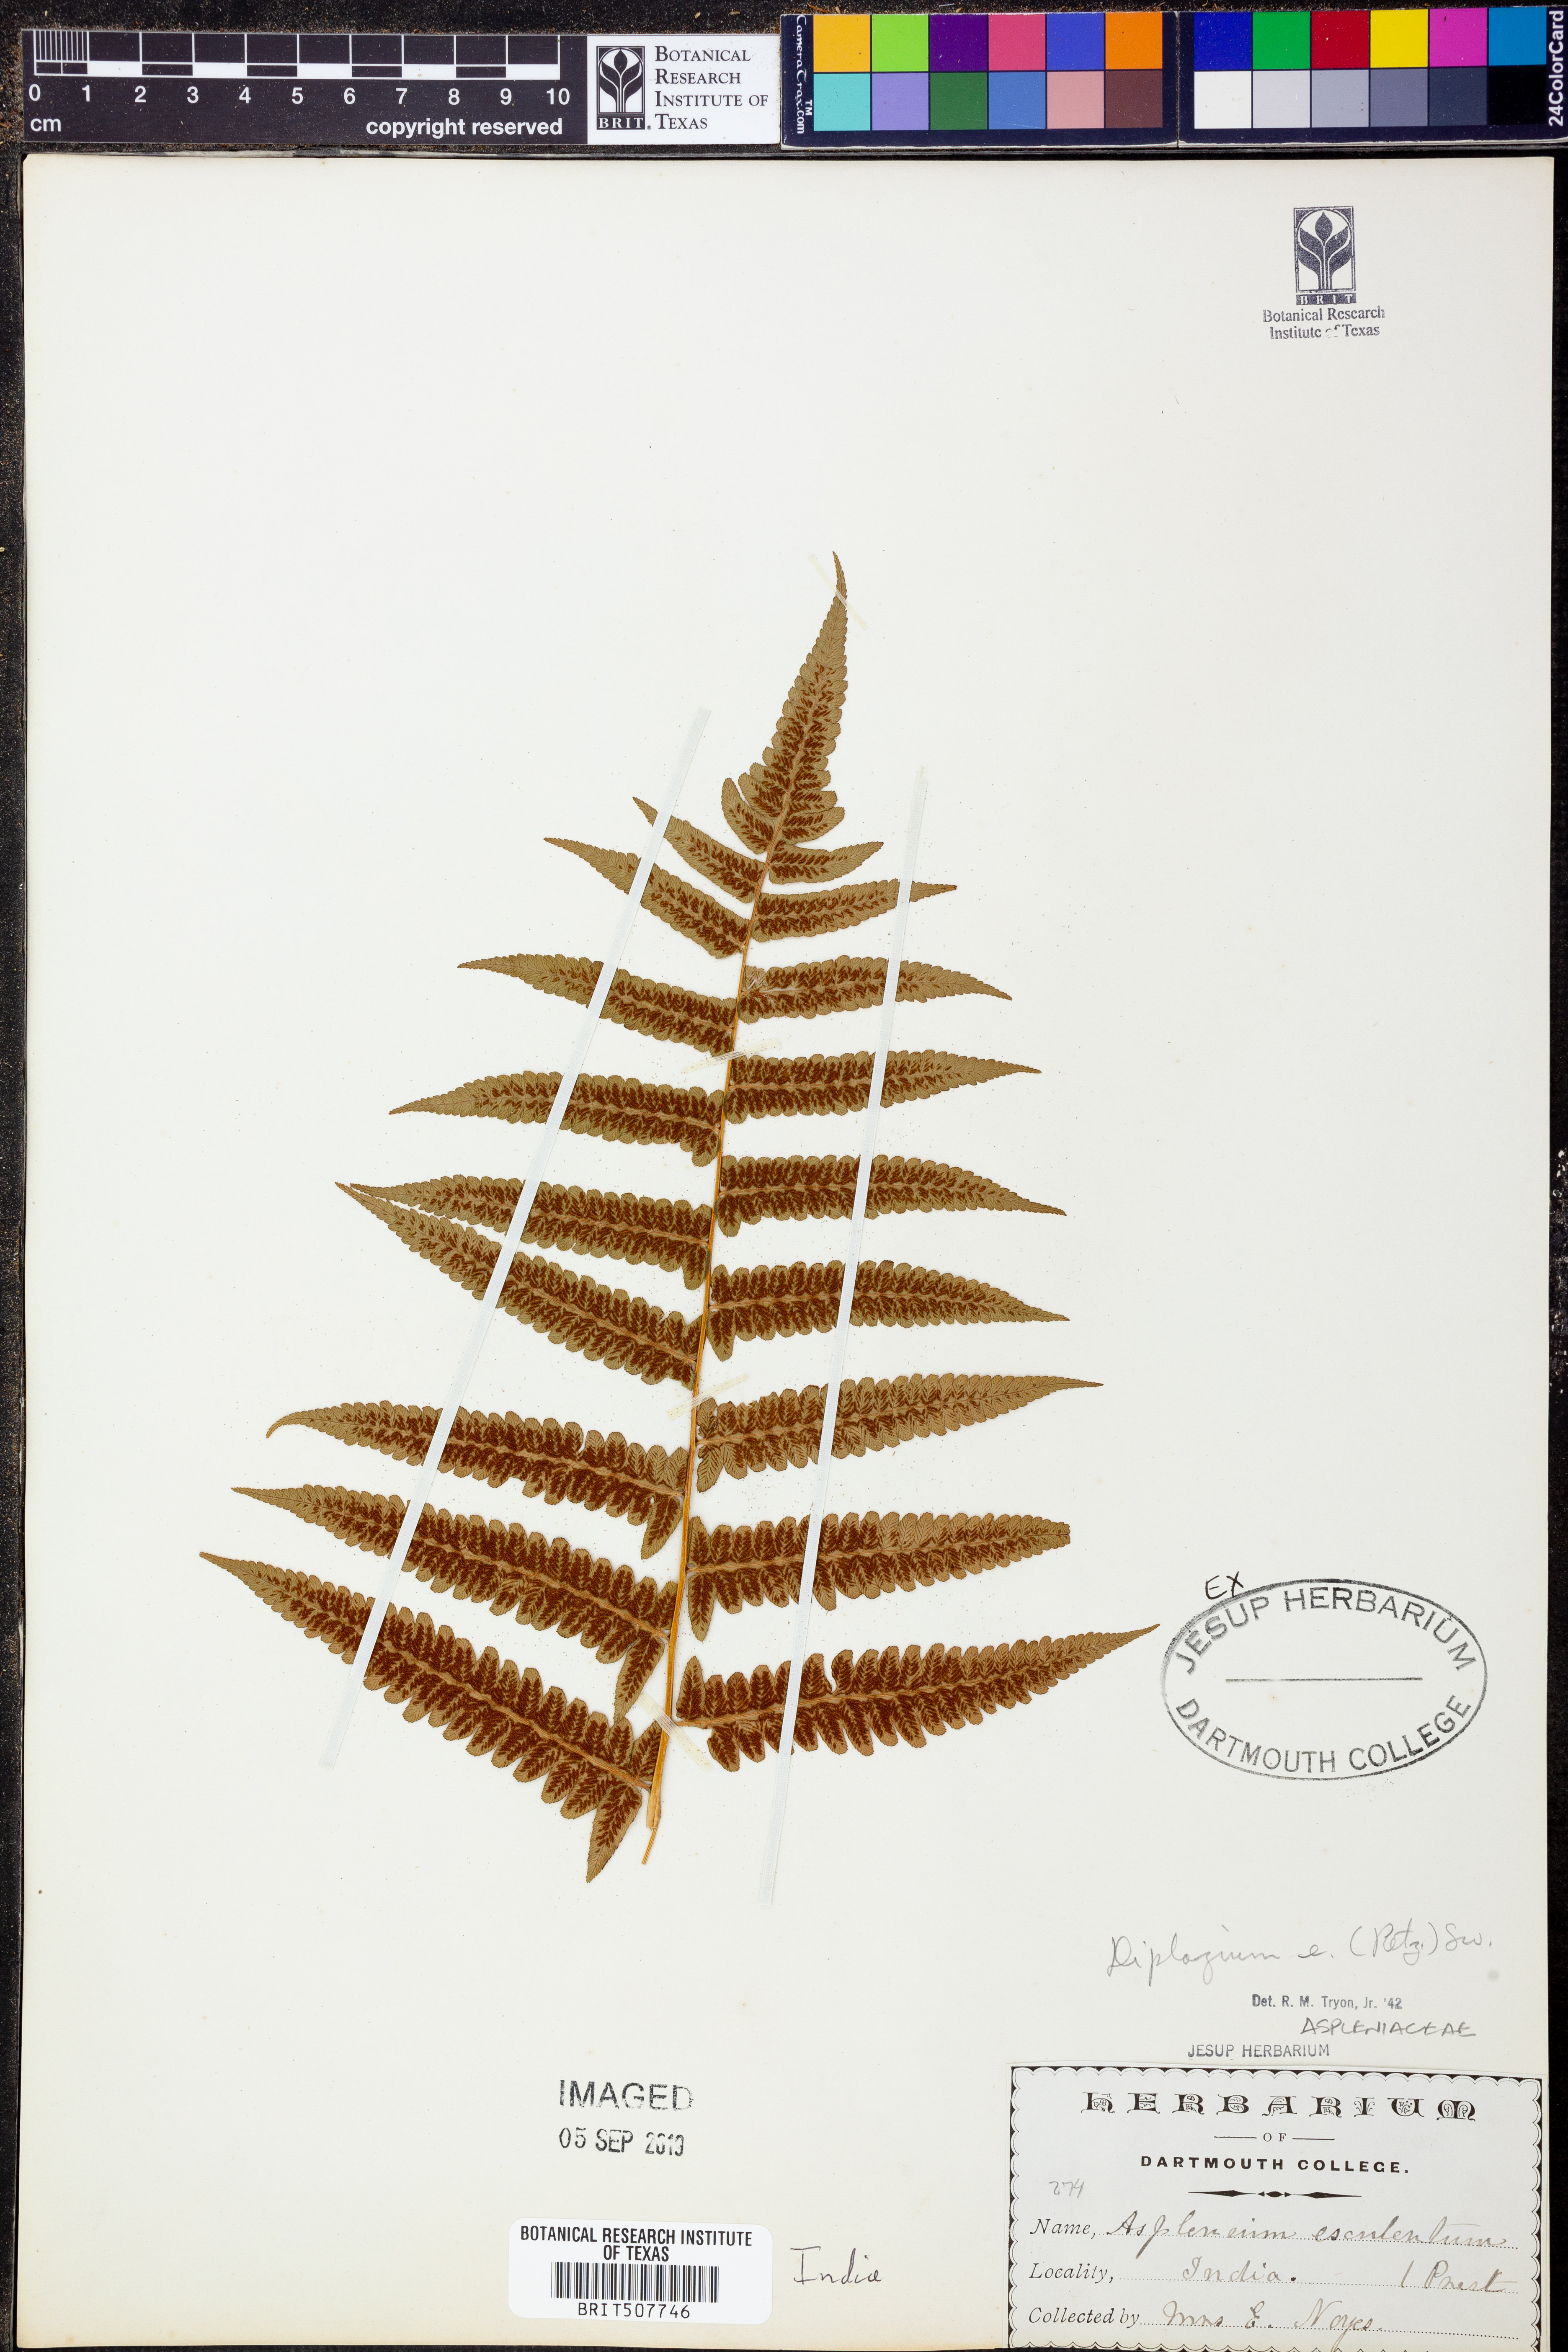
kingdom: Plantae
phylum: Tracheophyta
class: Polypodiopsida
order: Polypodiales
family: Athyriaceae
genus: Diplazium
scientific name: Diplazium esculentum
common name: Vegetable fern
